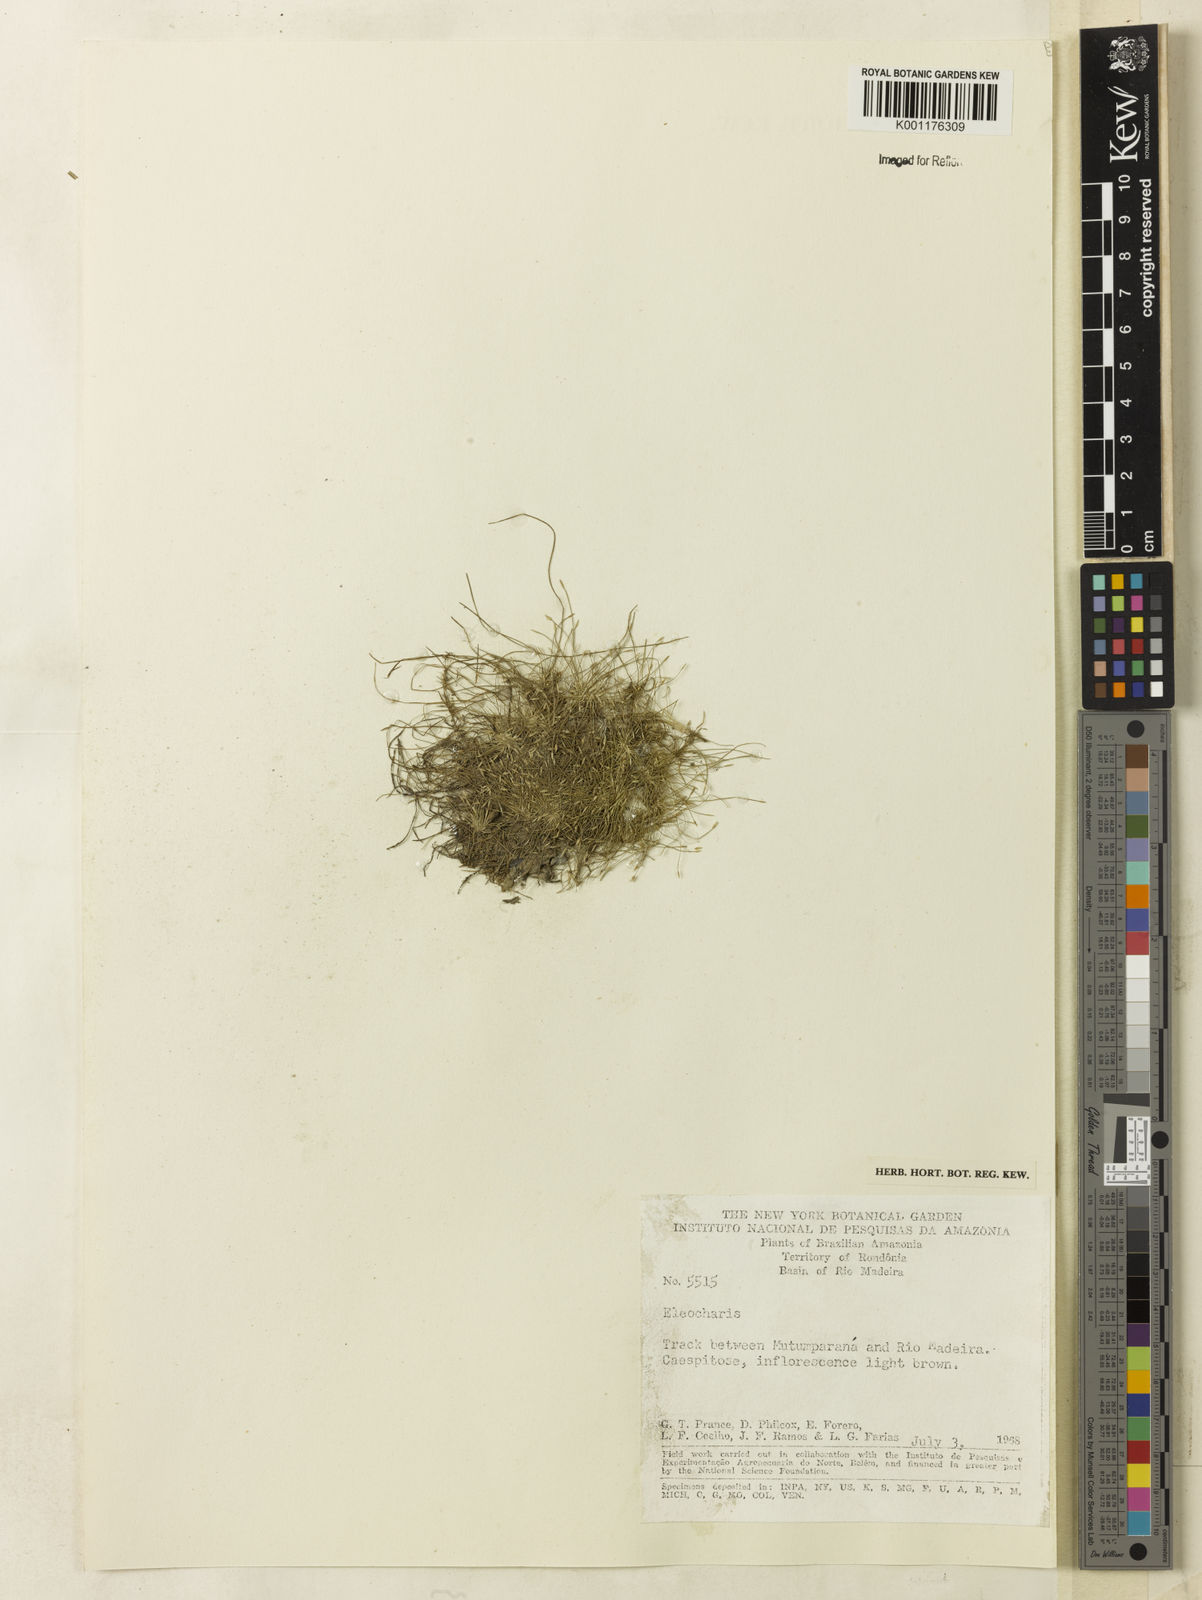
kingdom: Plantae
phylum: Tracheophyta
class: Liliopsida
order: Poales
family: Cyperaceae
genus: Eleocharis
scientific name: Eleocharis
